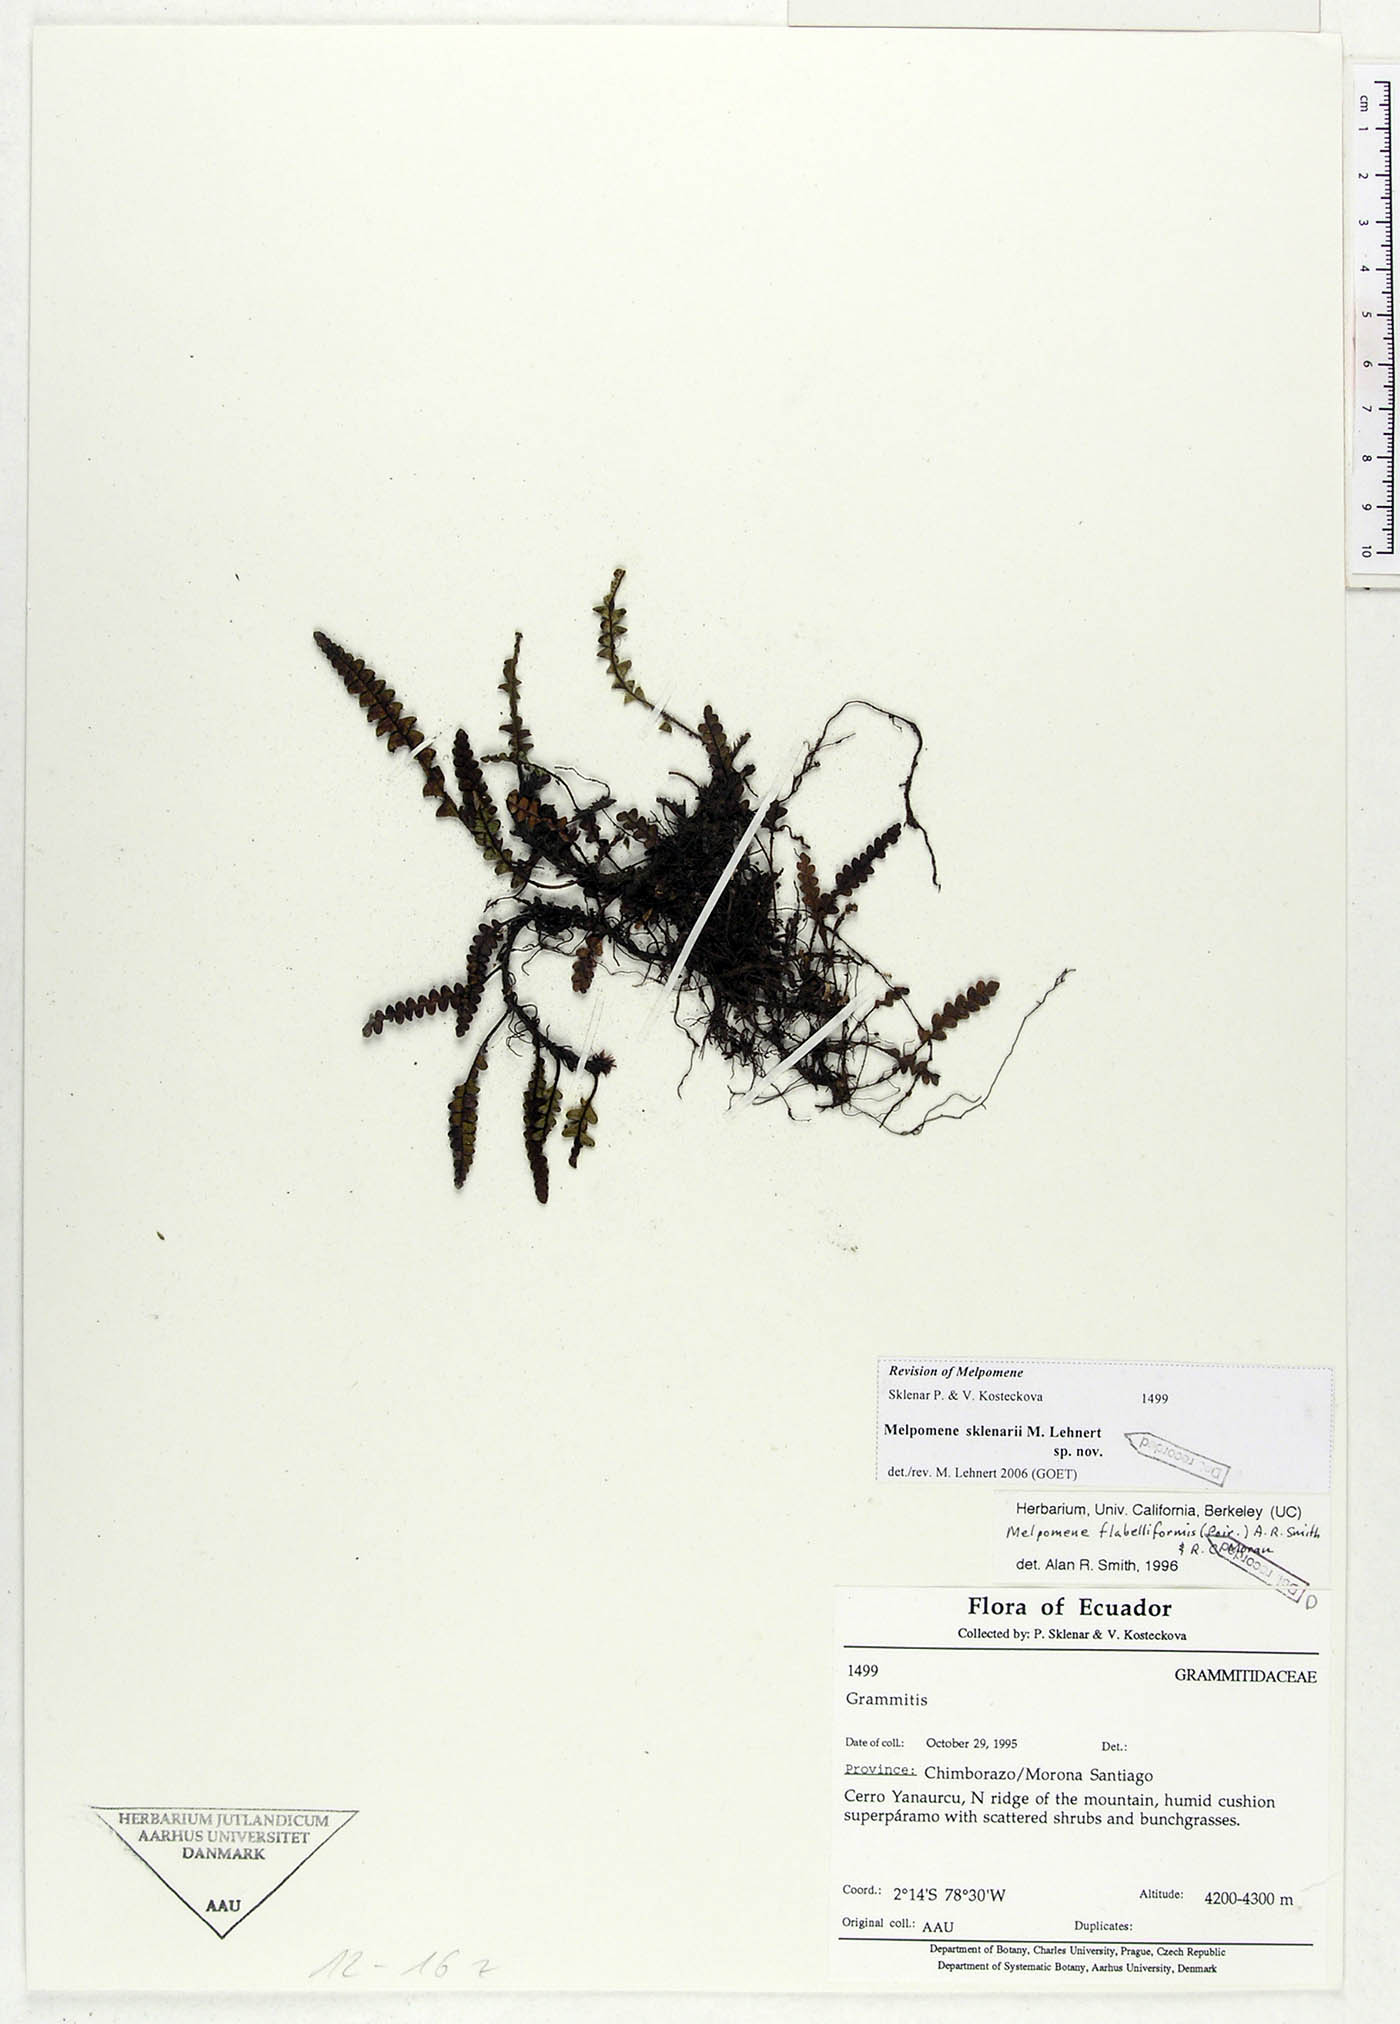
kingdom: Plantae
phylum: Tracheophyta
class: Polypodiopsida
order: Polypodiales
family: Polypodiaceae
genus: Melpomene
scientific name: Melpomene sklenarii
